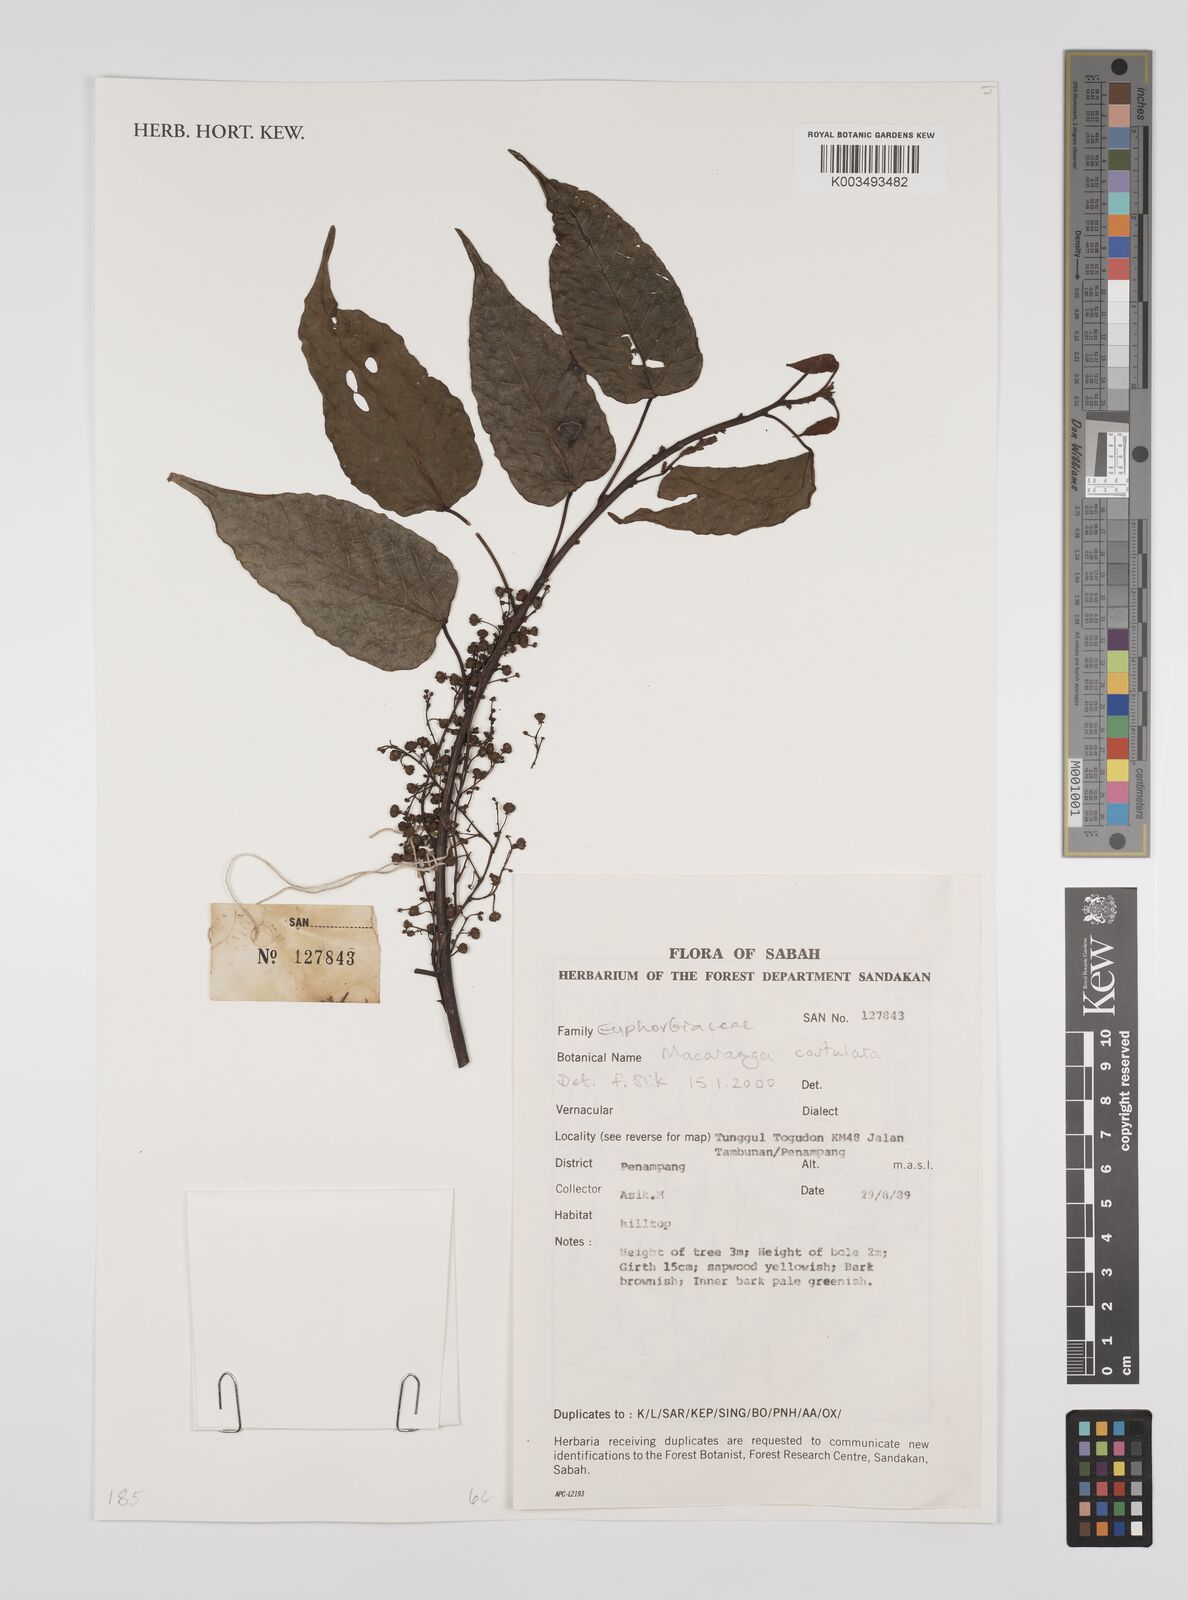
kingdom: Plantae
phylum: Tracheophyta
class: Magnoliopsida
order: Malpighiales
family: Euphorbiaceae
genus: Macaranga
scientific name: Macaranga costulata
